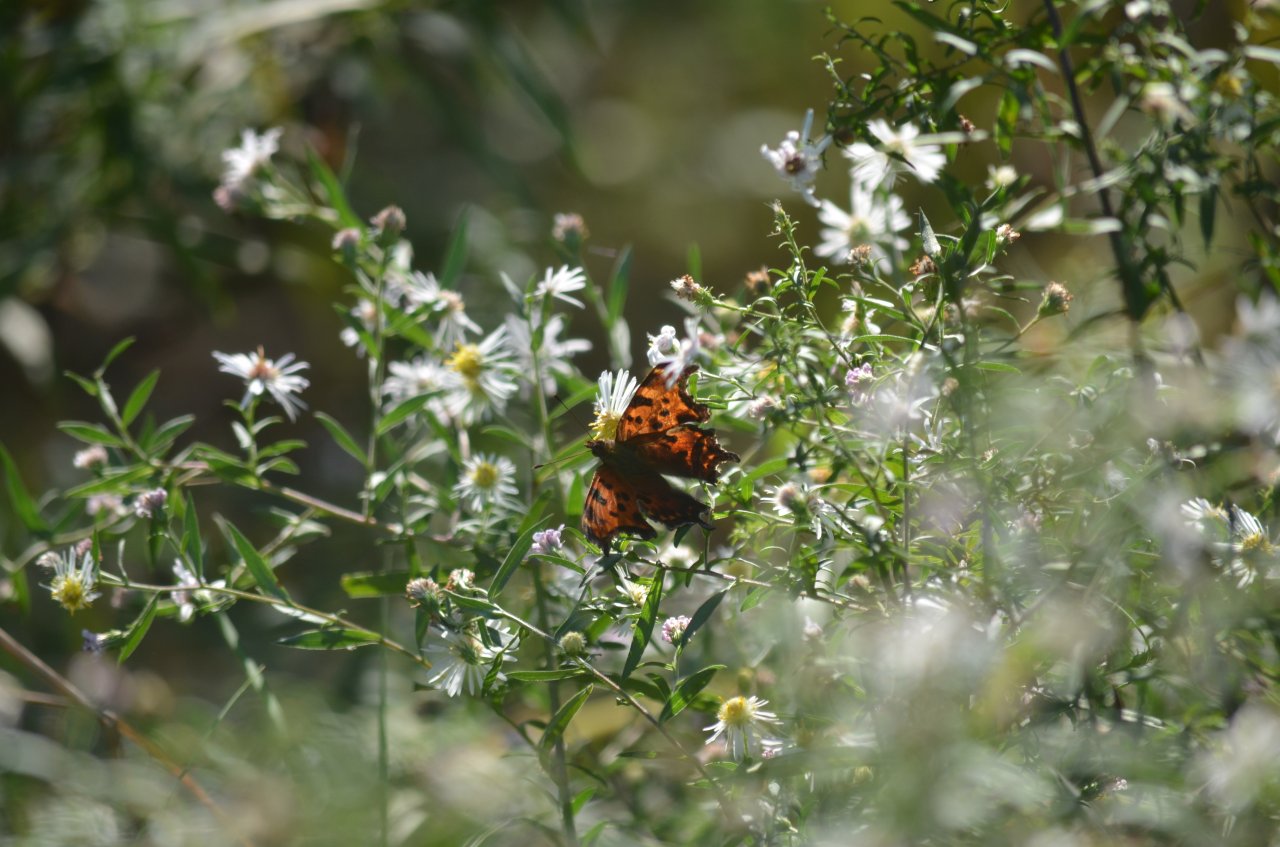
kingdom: Animalia
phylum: Arthropoda
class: Insecta
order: Lepidoptera
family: Nymphalidae
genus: Polygonia
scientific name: Polygonia comma
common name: Eastern Comma
